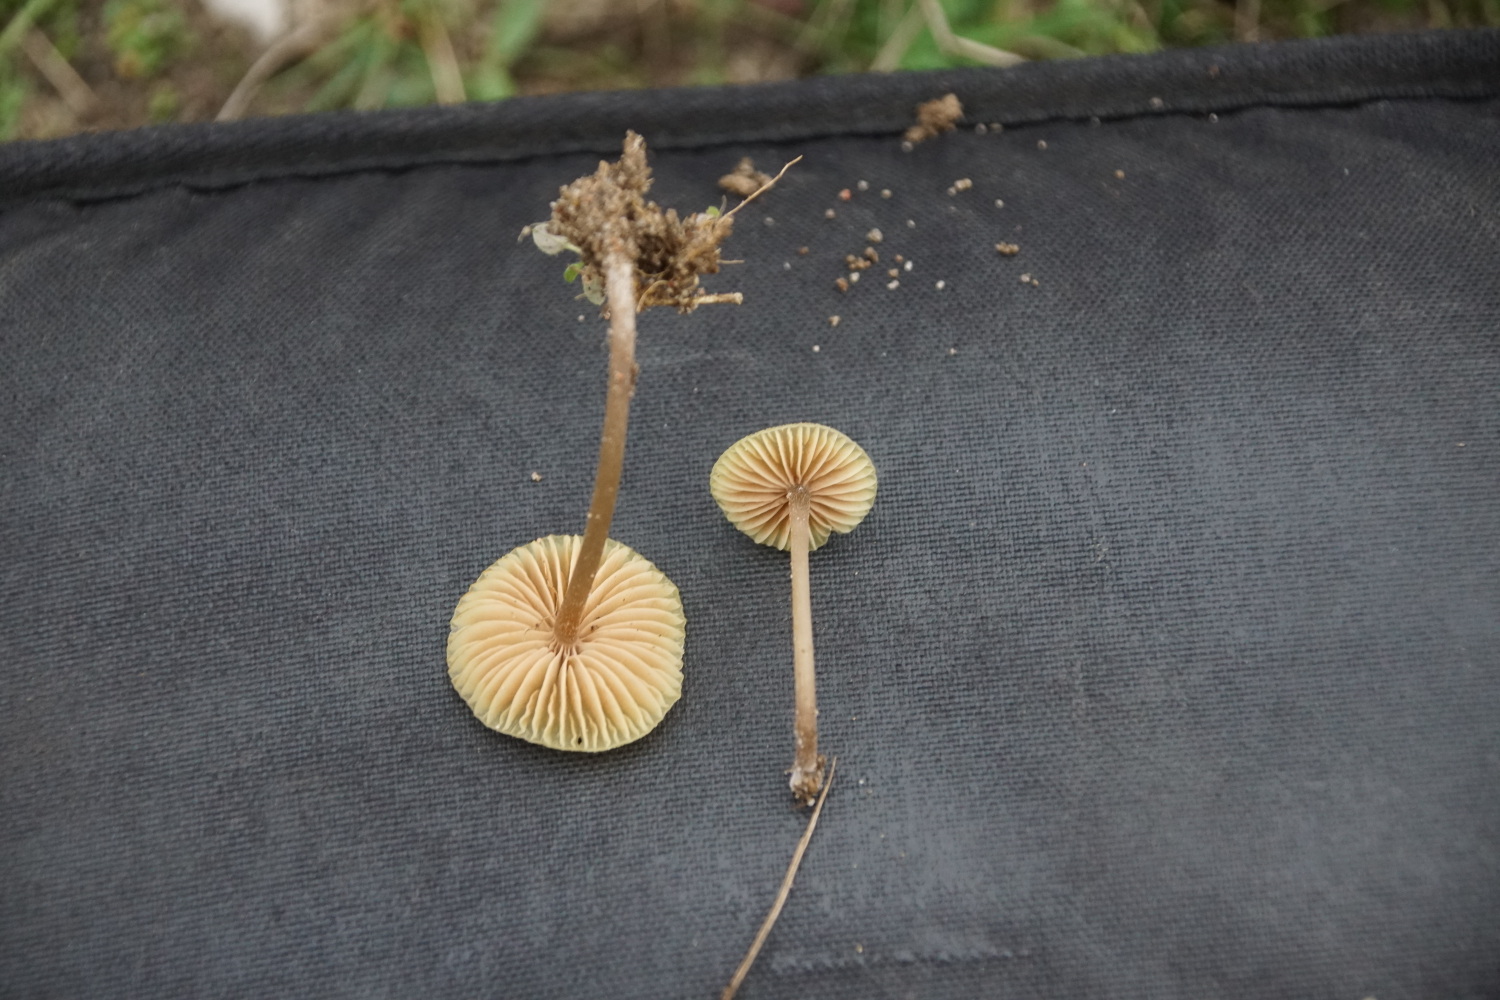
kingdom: Fungi
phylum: Basidiomycota
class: Agaricomycetes
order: Agaricales
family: Entolomataceae
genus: Entoloma
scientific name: Entoloma pleopodium
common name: duftende rødblad
